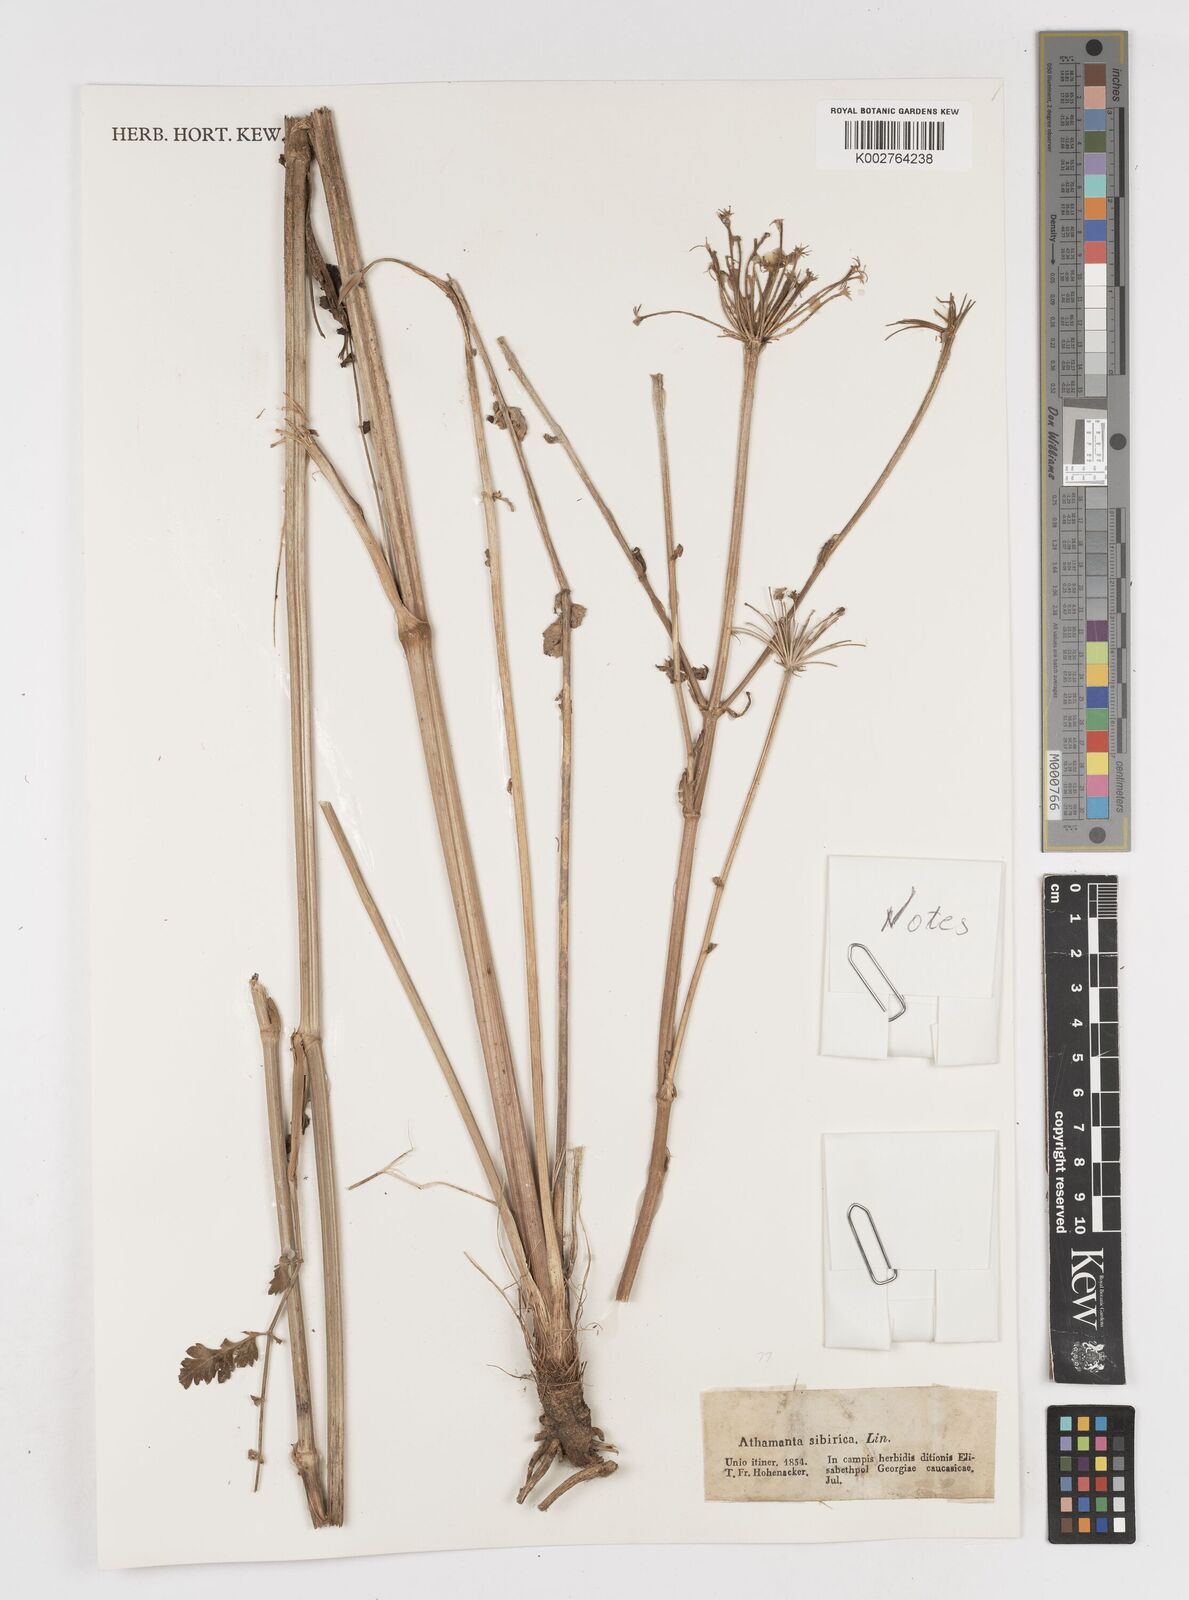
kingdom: Plantae
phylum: Tracheophyta
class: Magnoliopsida
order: Apiales
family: Apiaceae
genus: Seseli
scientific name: Seseli libanotis
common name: Mooncarrot
